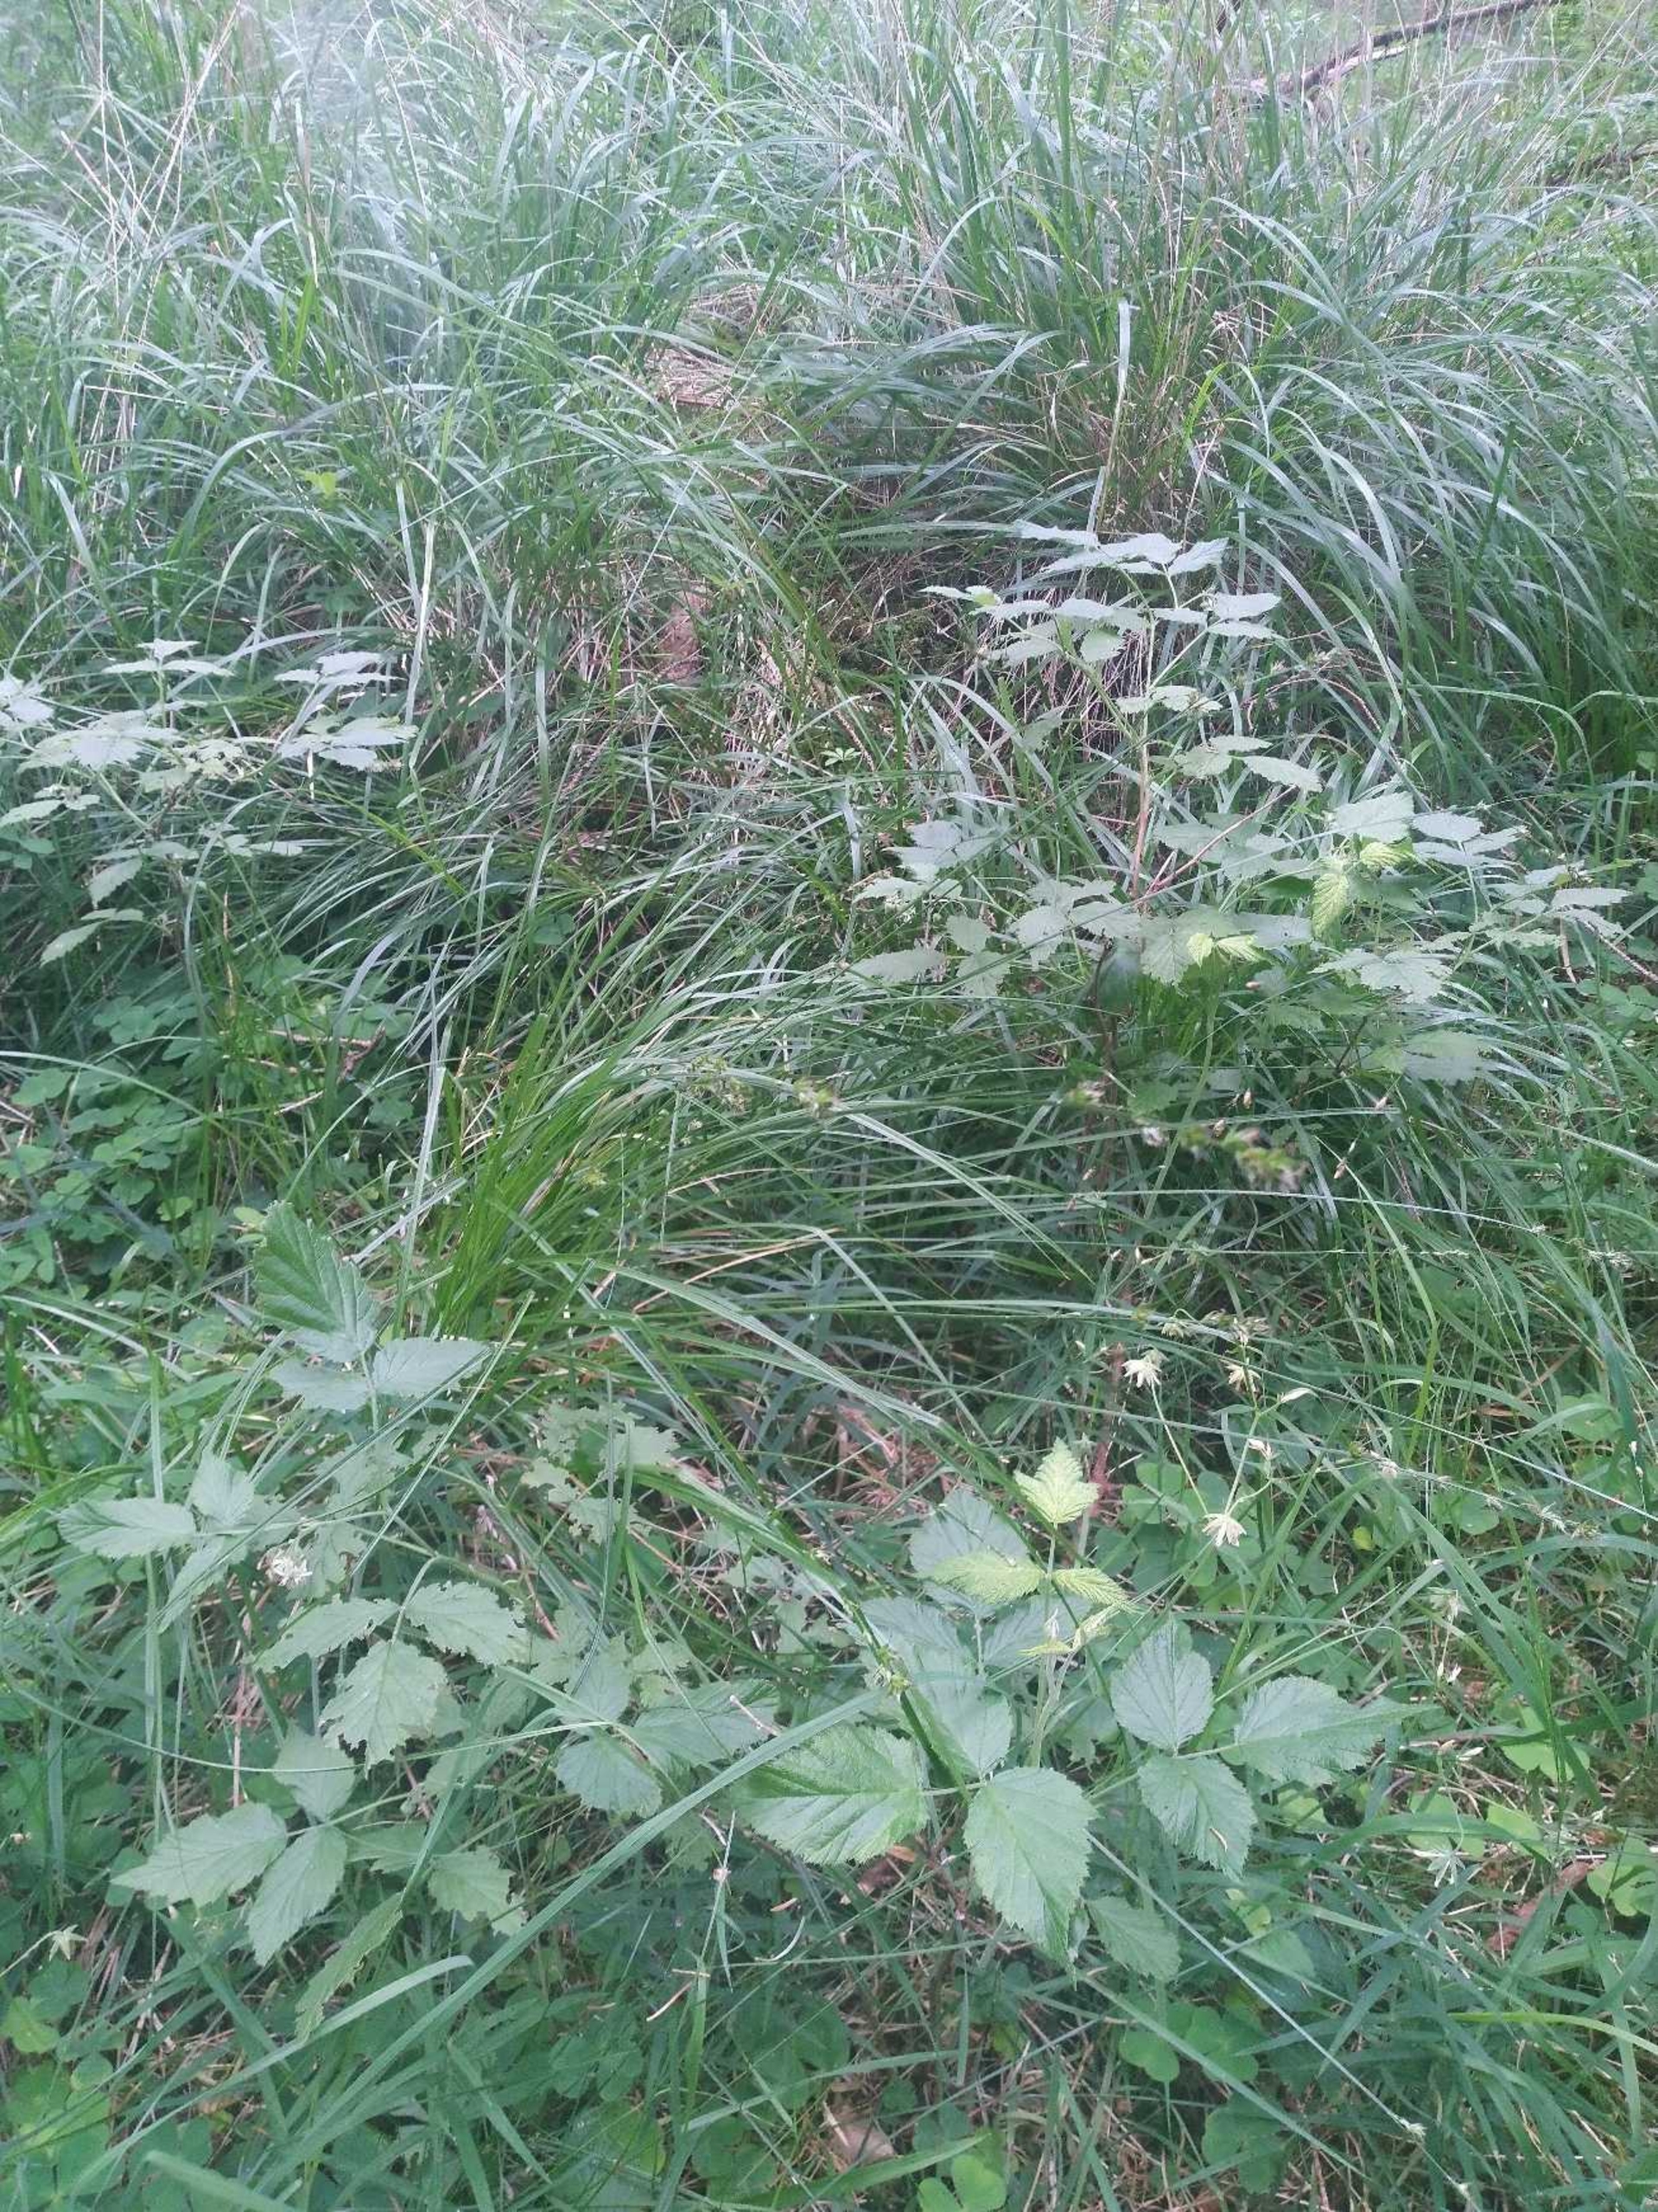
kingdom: Plantae
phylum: Tracheophyta
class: Liliopsida
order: Poales
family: Cyperaceae
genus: Carex
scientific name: Carex divulsa
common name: Mellembrudt star
